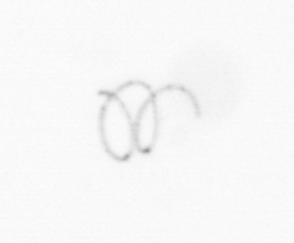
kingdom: Chromista
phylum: Ochrophyta
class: Bacillariophyceae
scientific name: Bacillariophyceae
